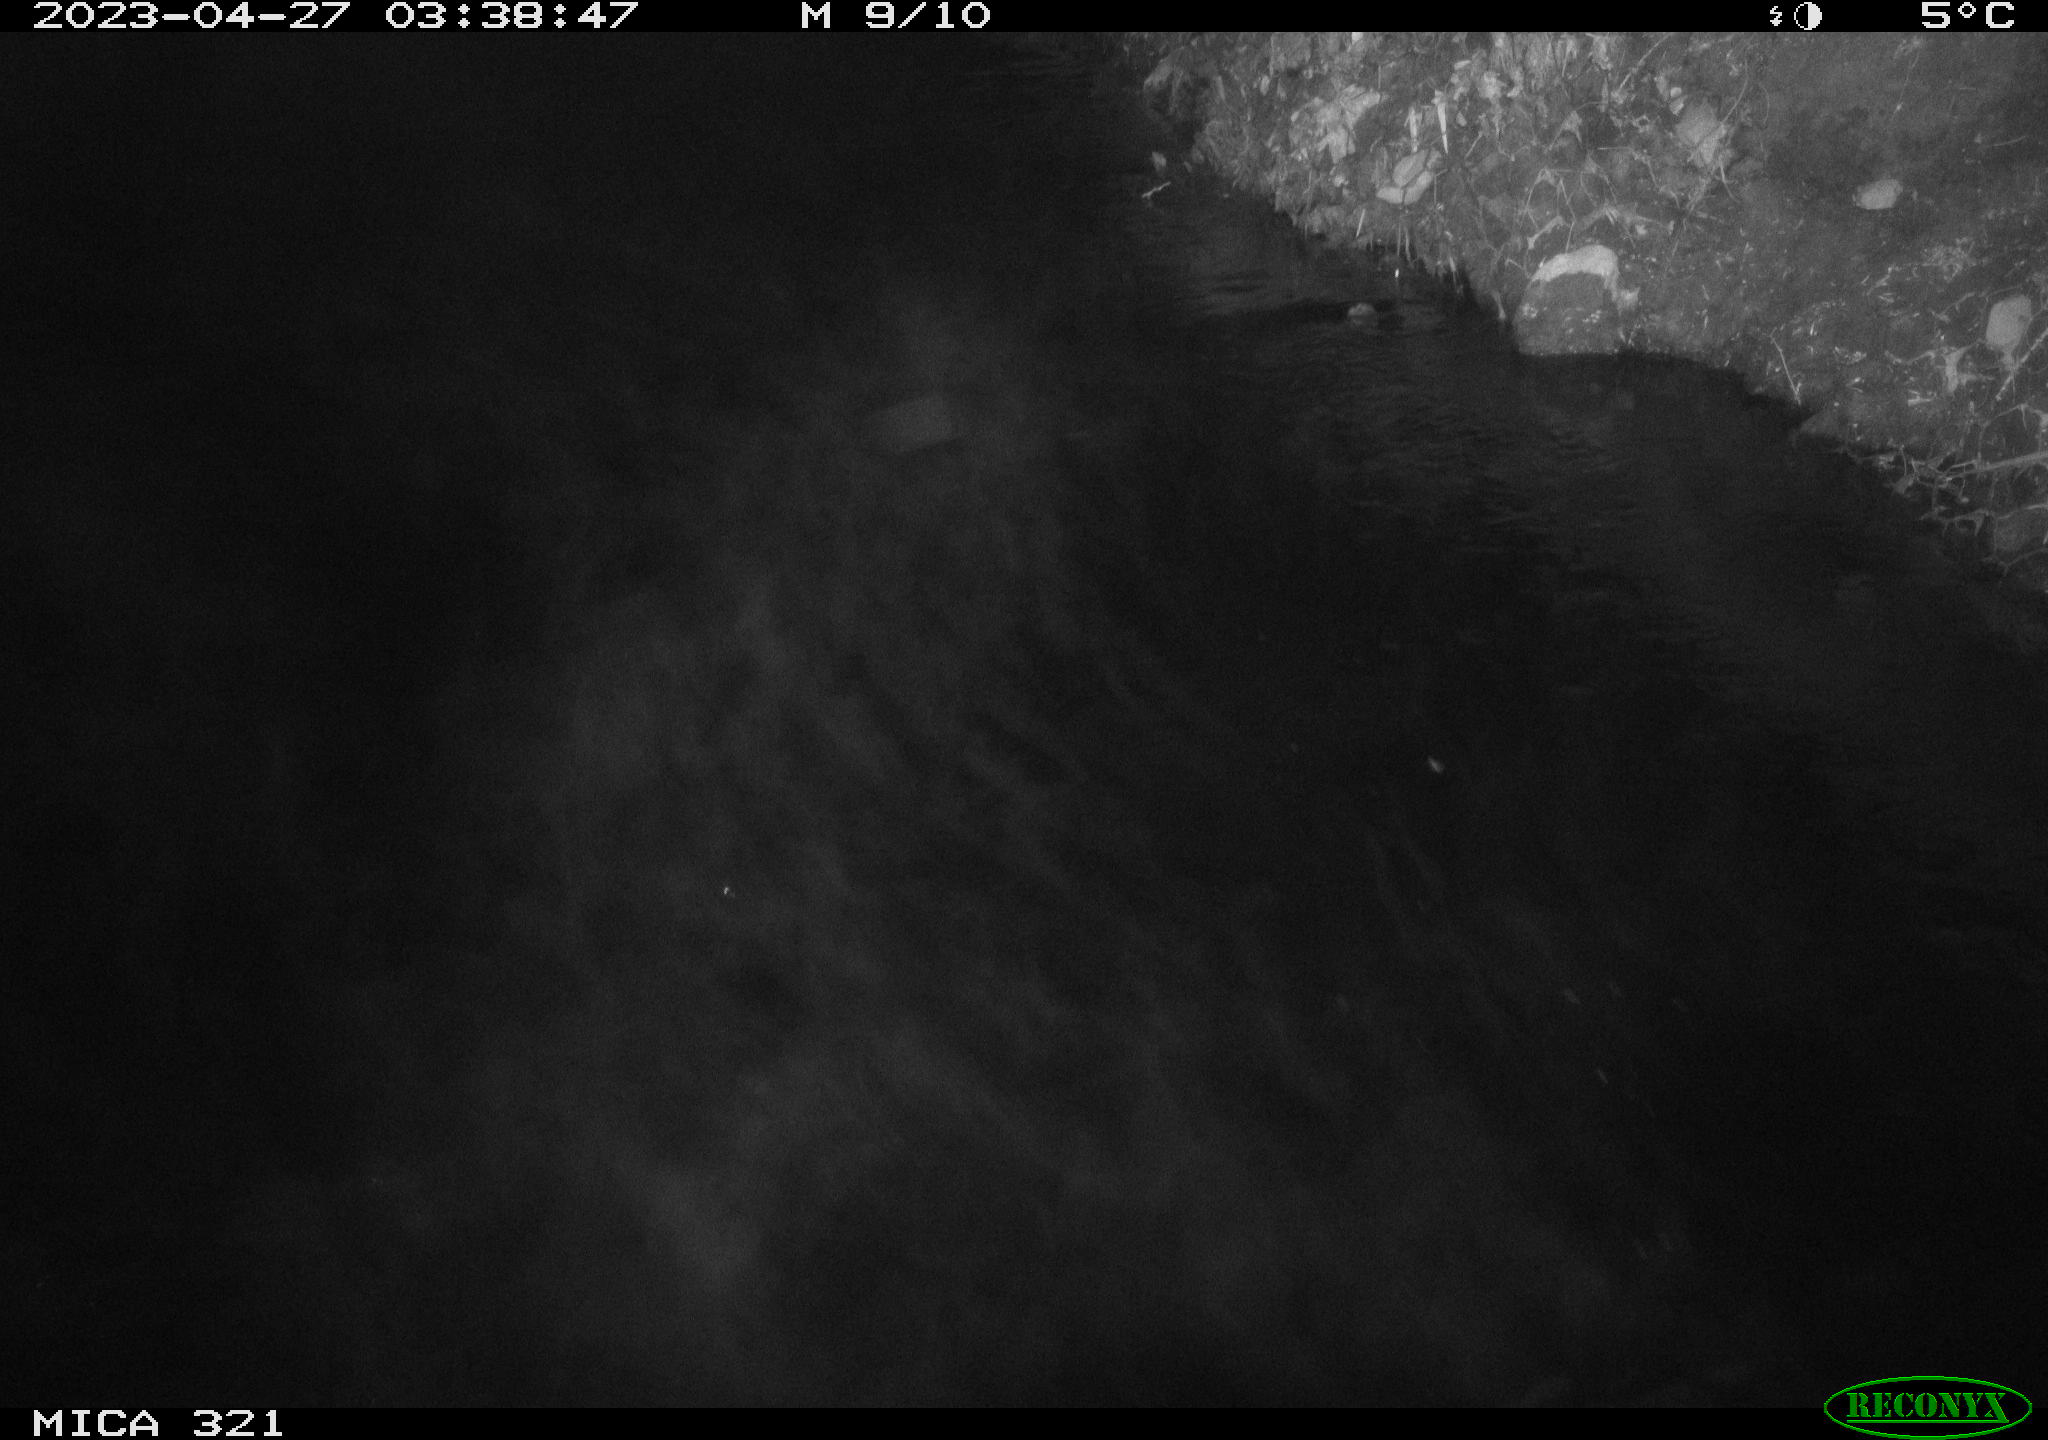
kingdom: Animalia
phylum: Chordata
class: Aves
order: Anseriformes
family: Anatidae
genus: Anas
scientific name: Anas
